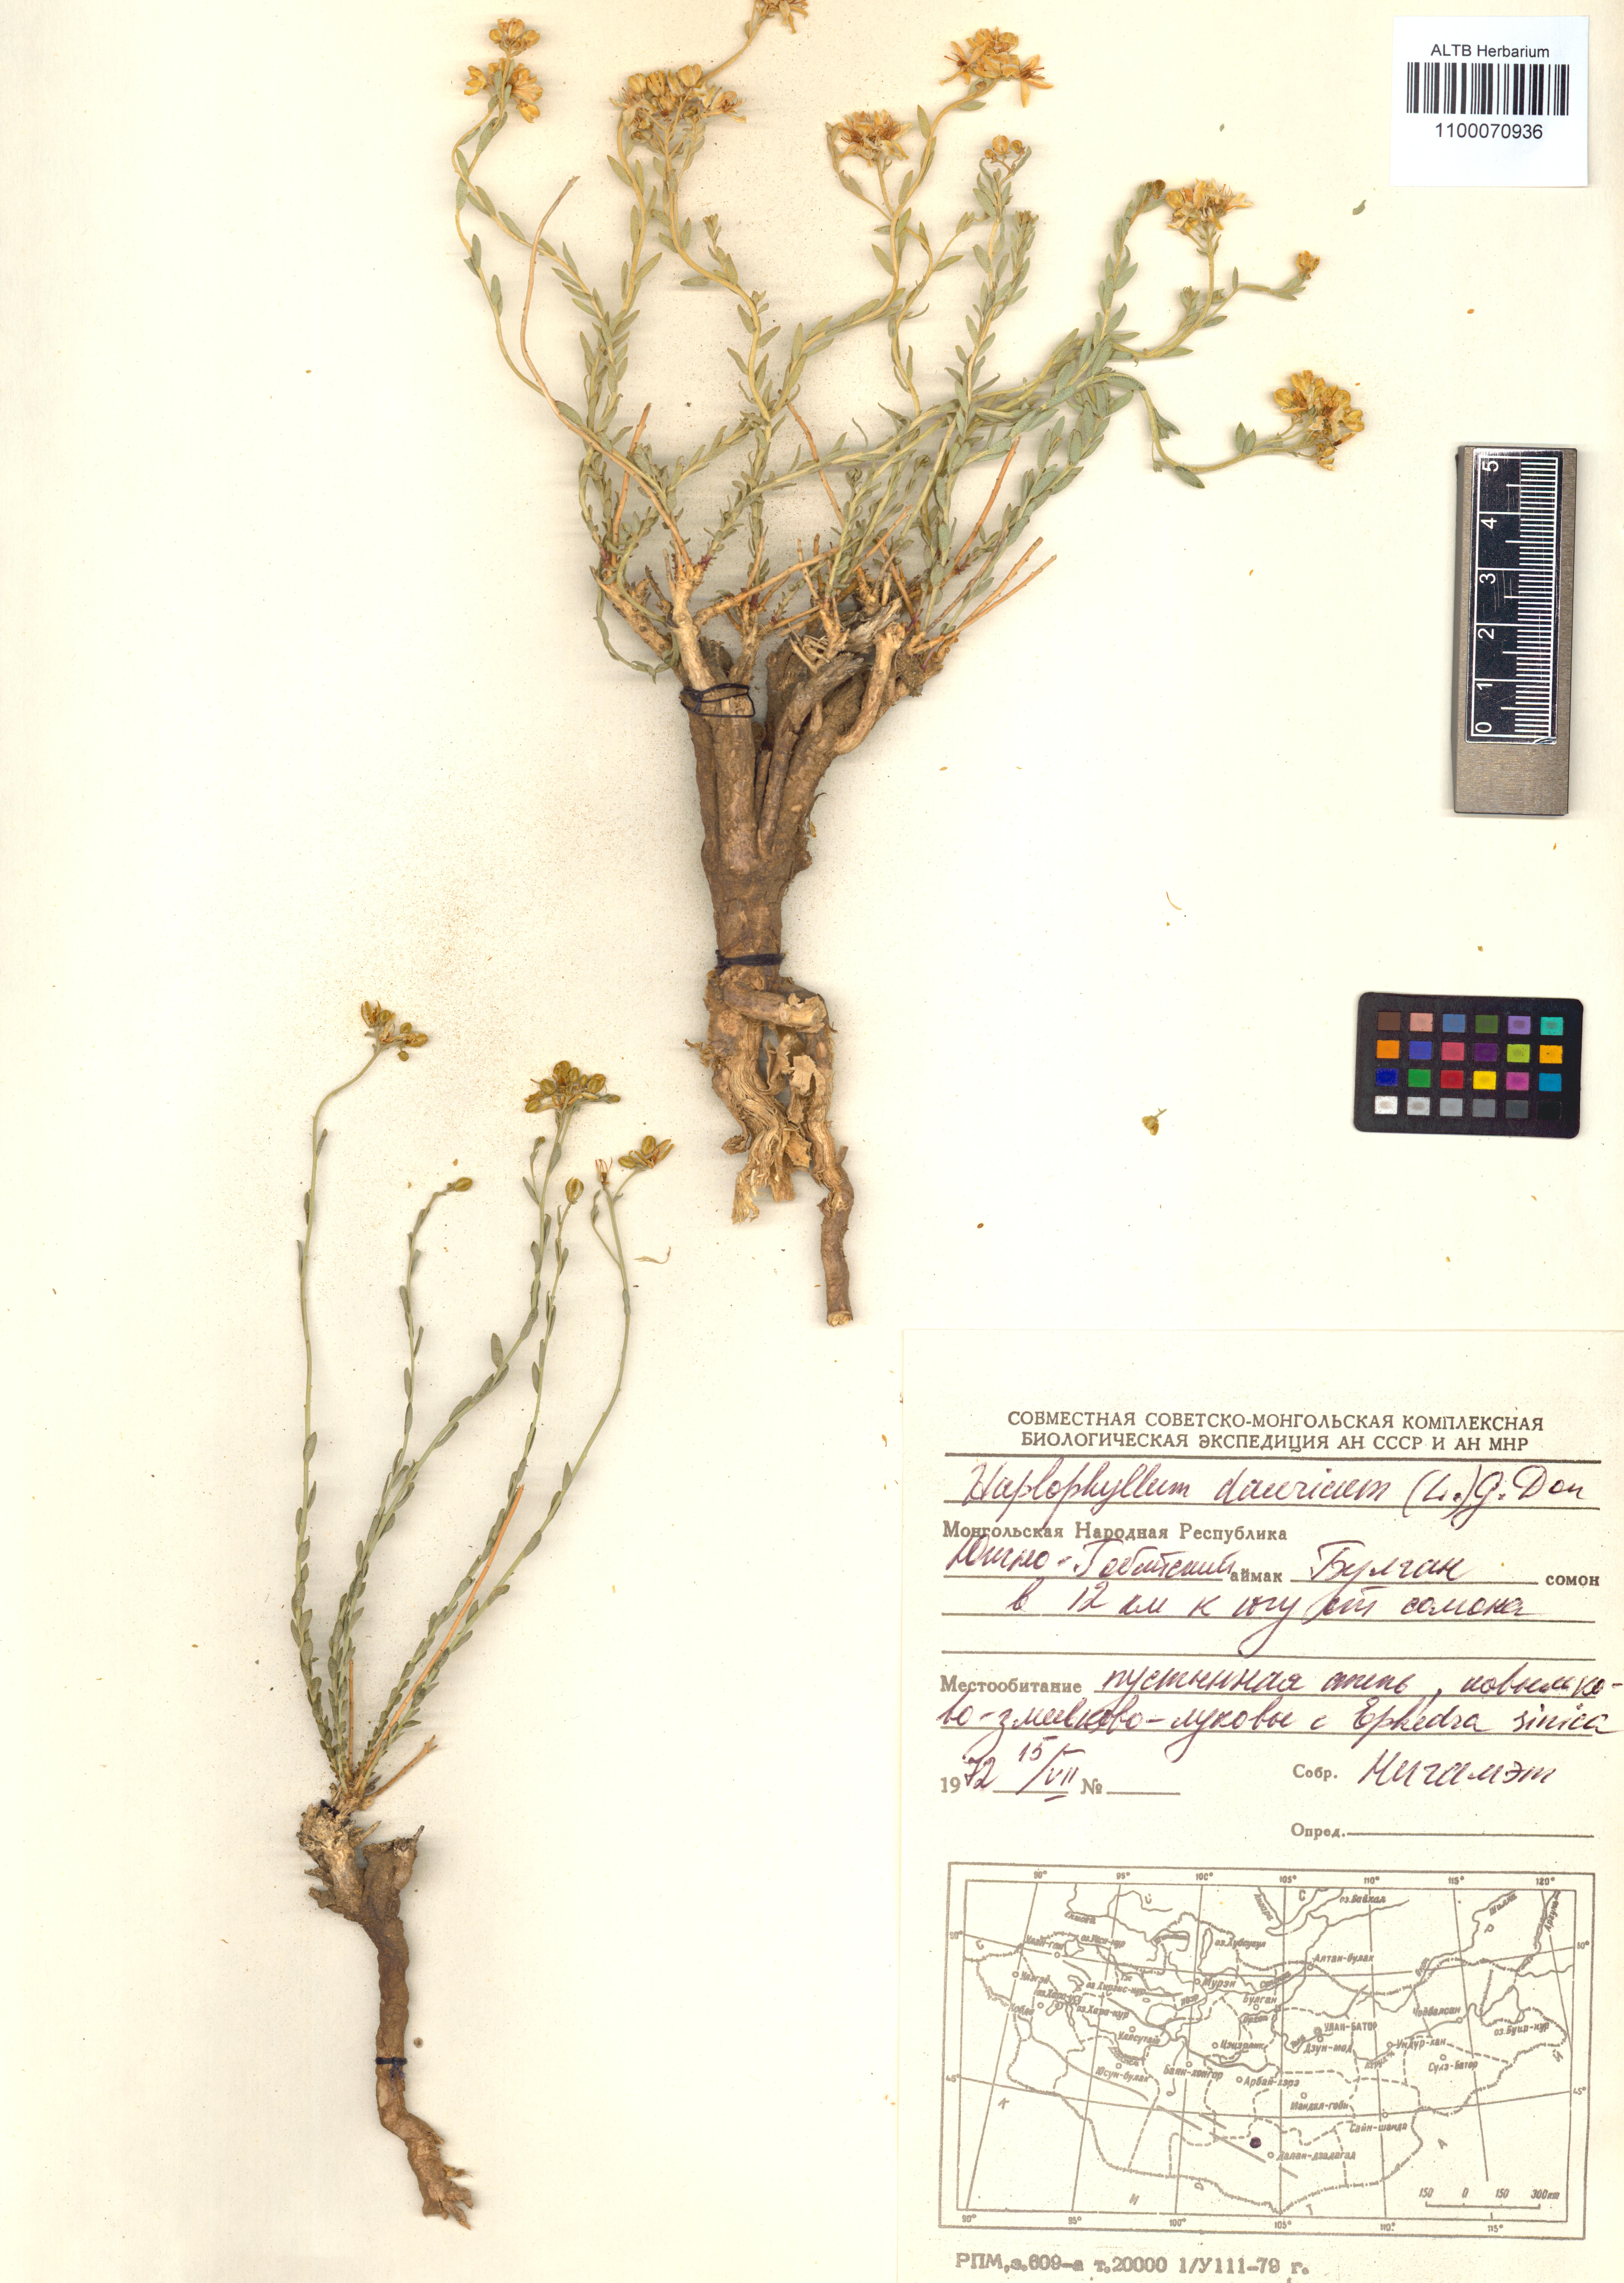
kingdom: Plantae
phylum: Tracheophyta
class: Magnoliopsida
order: Sapindales
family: Rutaceae
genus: Haplophyllum
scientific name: Haplophyllum dauricum
